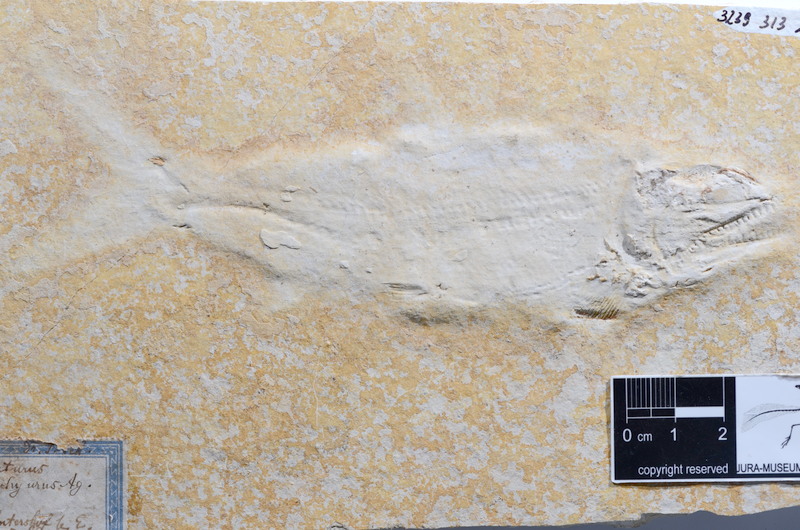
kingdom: Animalia
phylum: Chordata
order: Amiiformes
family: Caturidae
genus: Caturus
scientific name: Caturus furcatus
